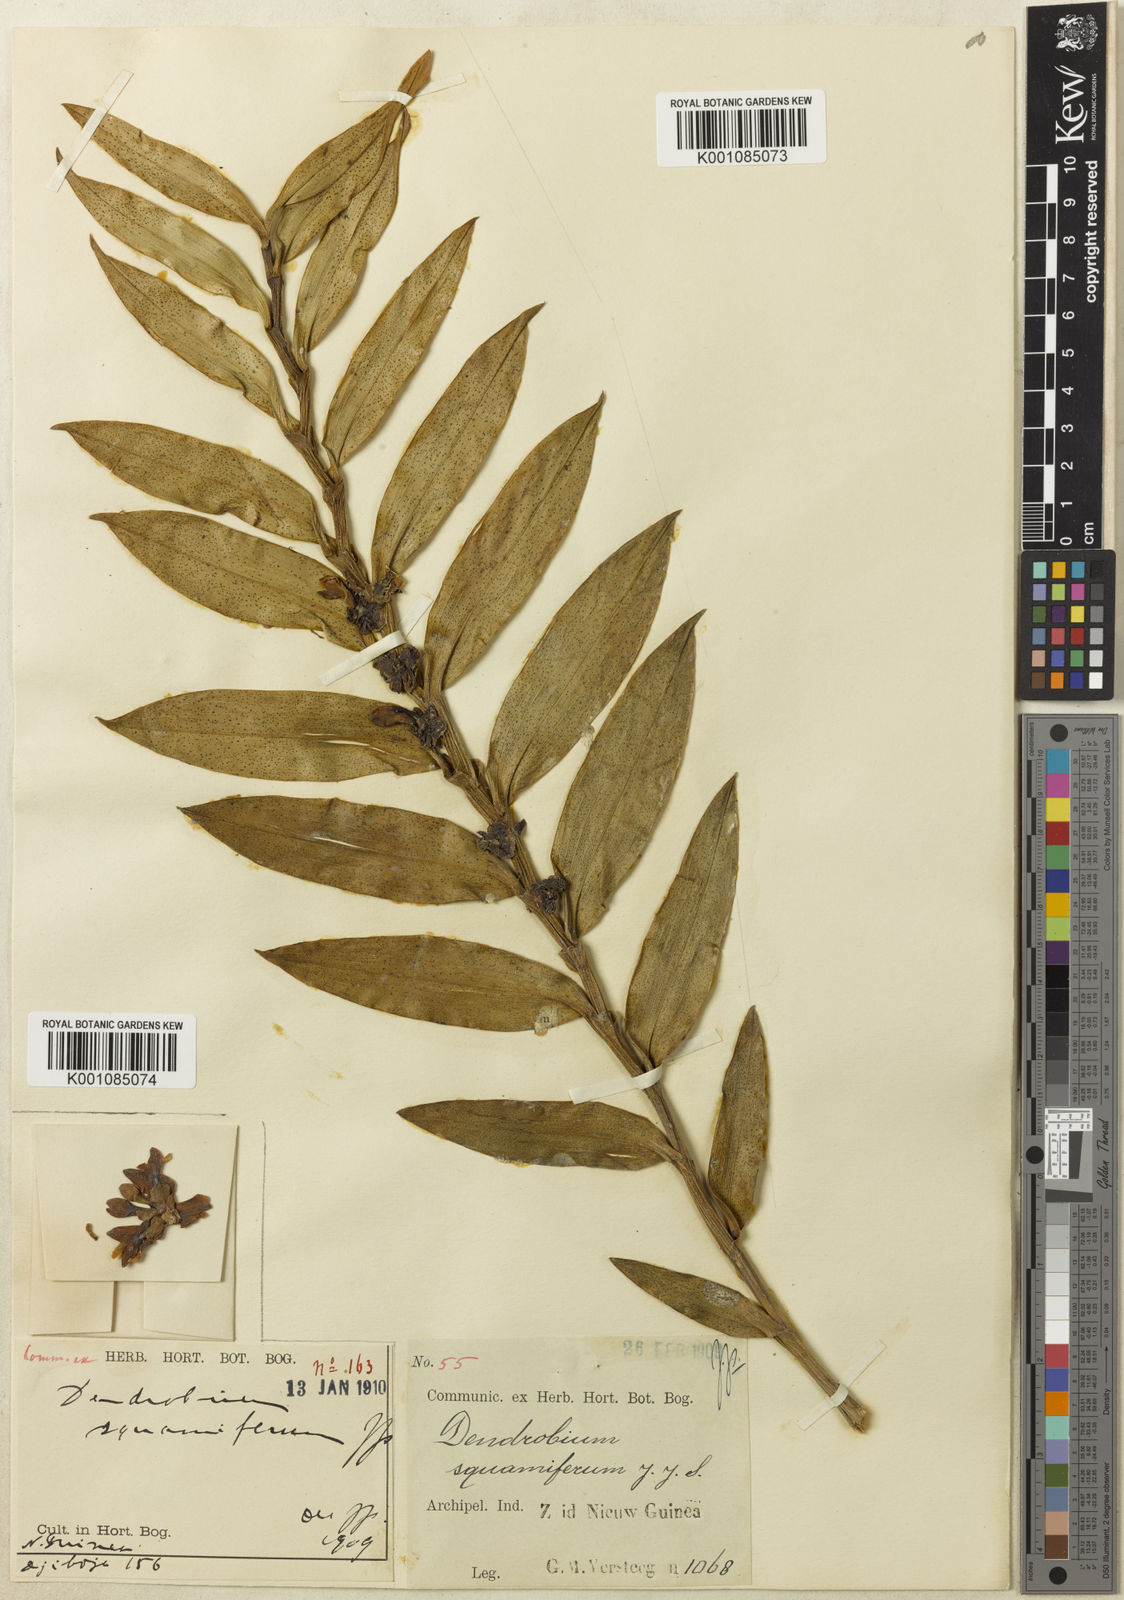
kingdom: Plantae
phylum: Tracheophyta
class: Liliopsida
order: Asparagales
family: Orchidaceae
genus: Dendrobium
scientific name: Dendrobium squamiferum
